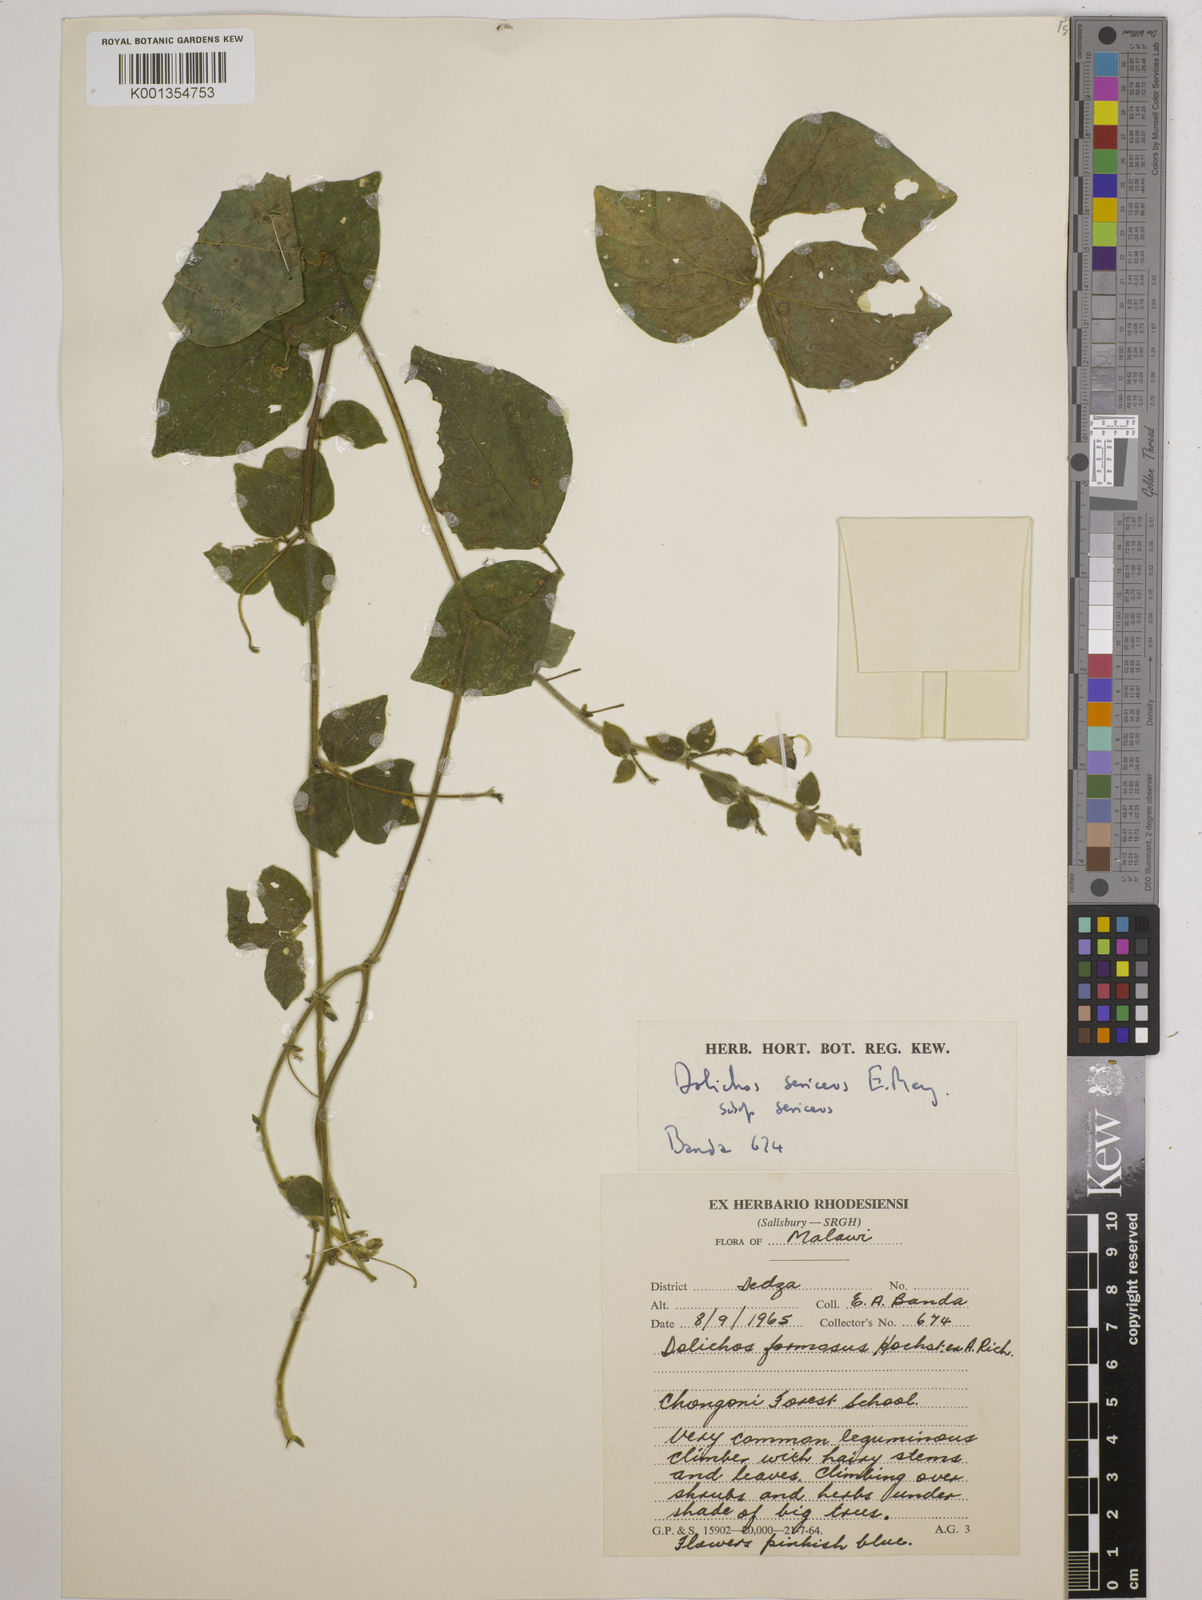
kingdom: Plantae
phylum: Tracheophyta
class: Magnoliopsida
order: Fabales
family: Fabaceae
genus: Dolichos
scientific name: Dolichos
